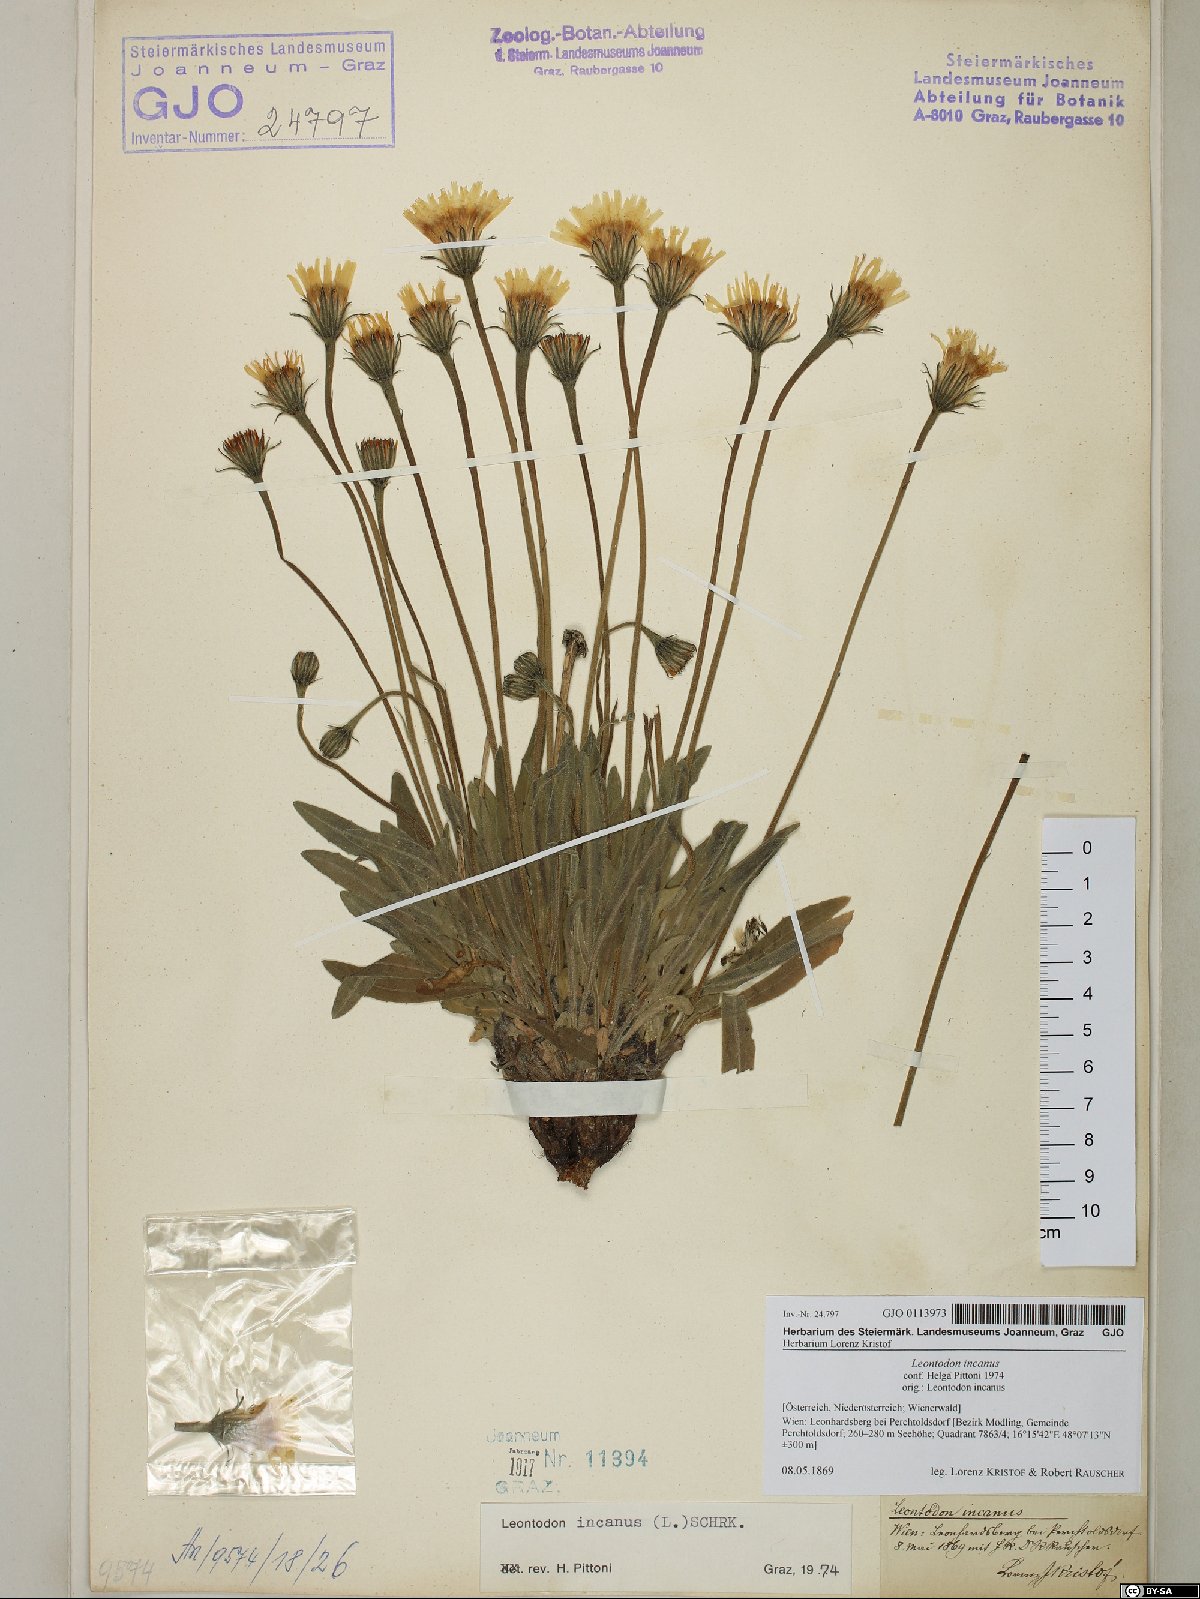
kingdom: Plantae
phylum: Tracheophyta
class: Magnoliopsida
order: Asterales
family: Asteraceae
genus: Leontodon
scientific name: Leontodon incanus
